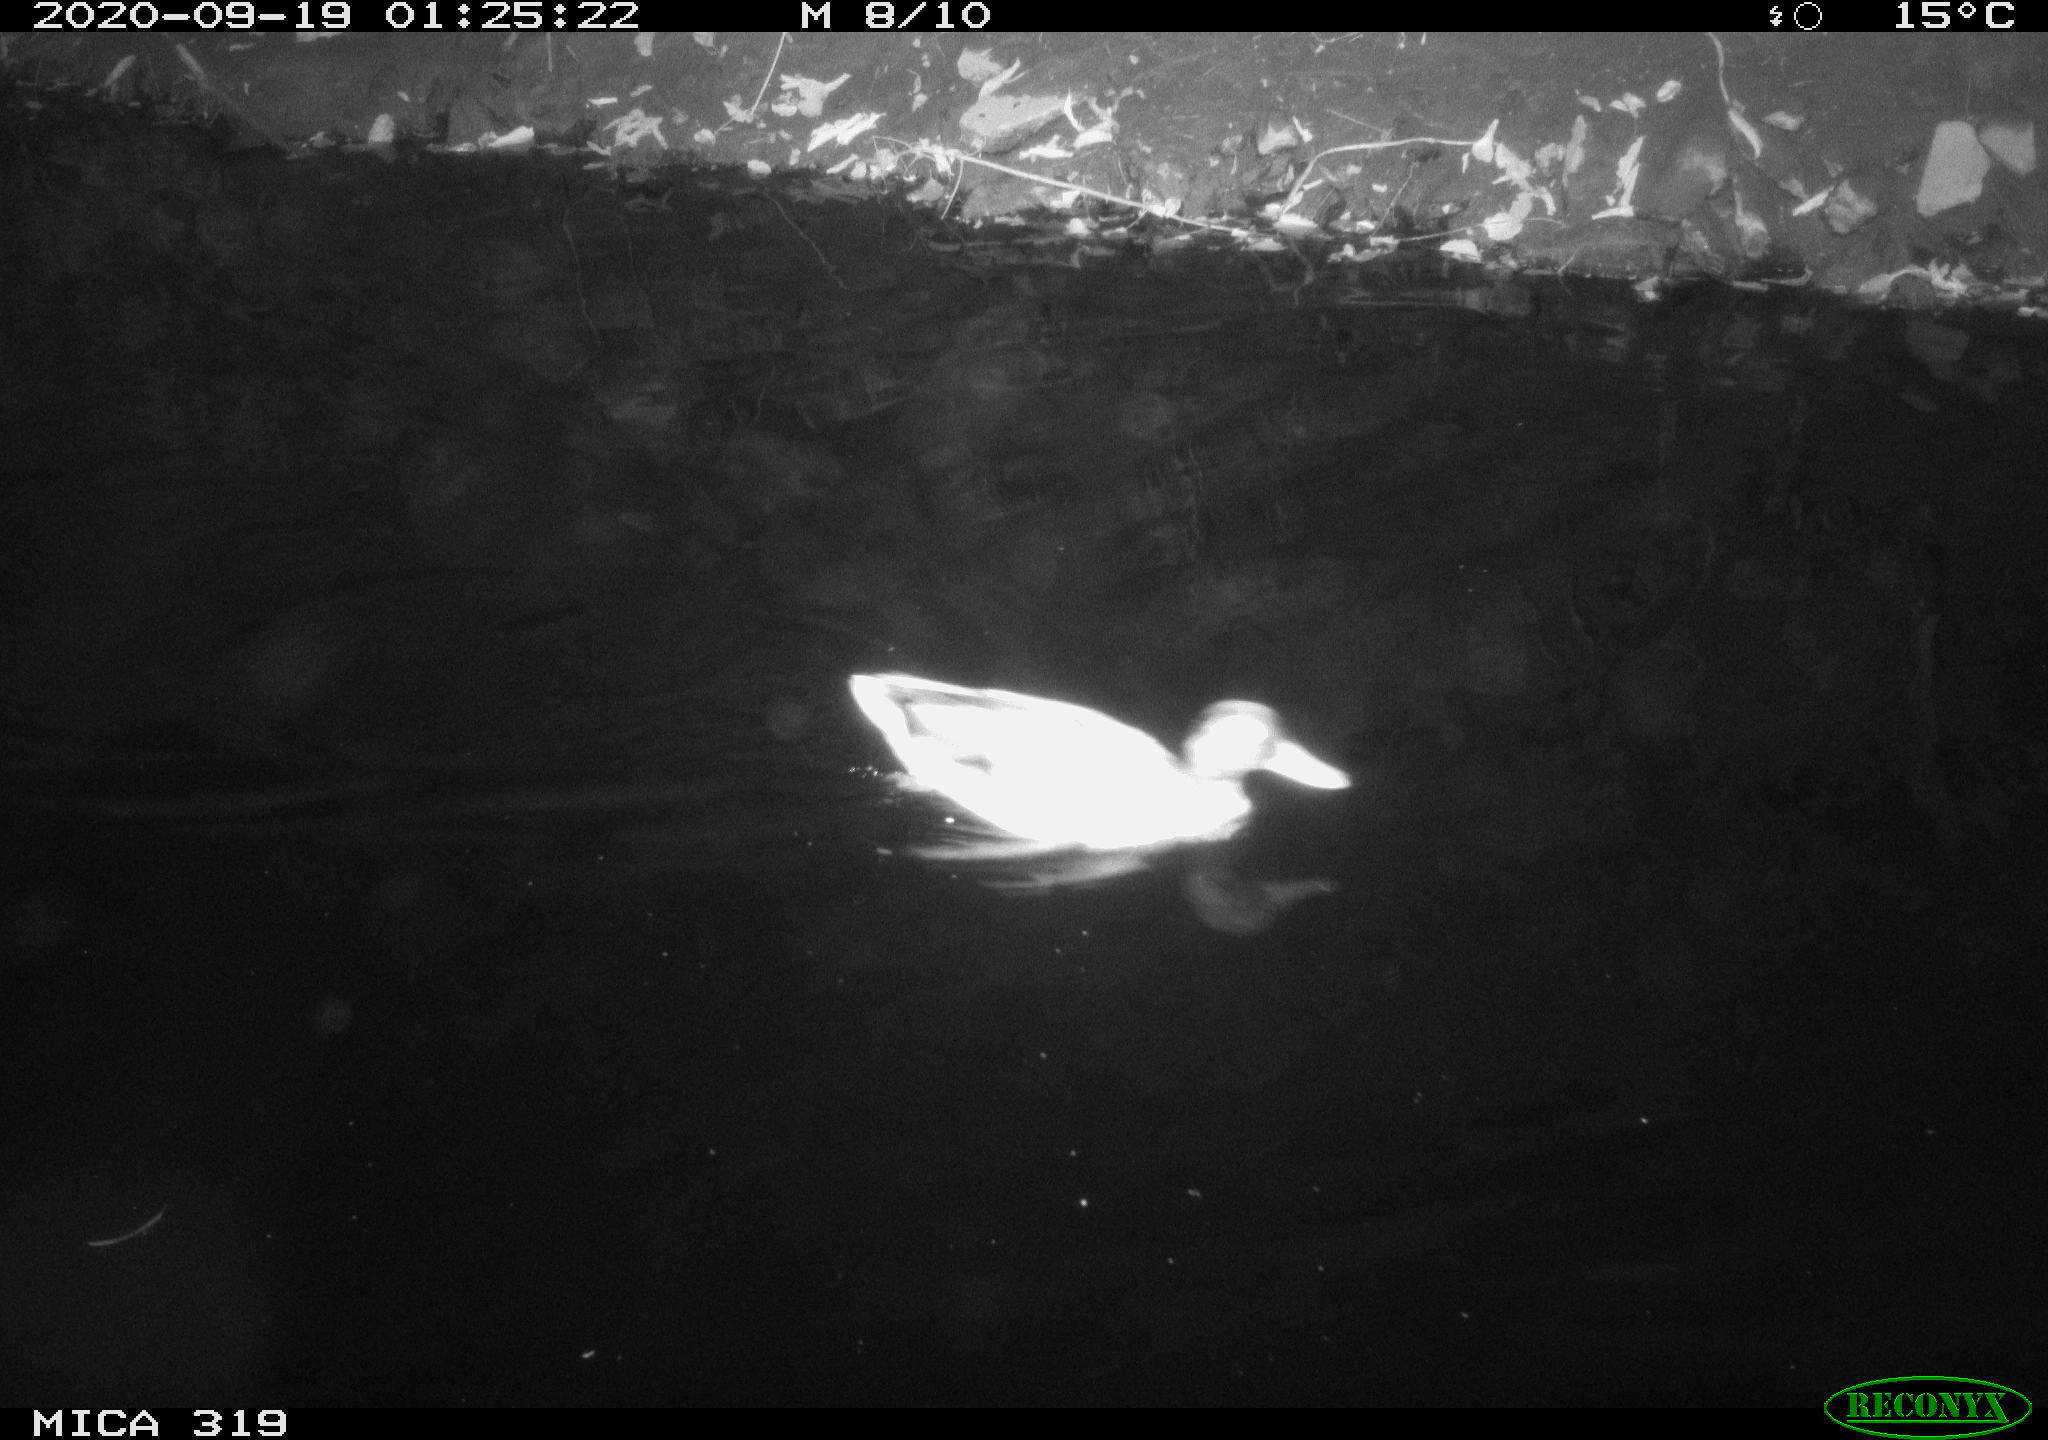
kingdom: Animalia
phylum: Chordata
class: Aves
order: Anseriformes
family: Anatidae
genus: Anas
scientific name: Anas platyrhynchos
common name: Mallard
